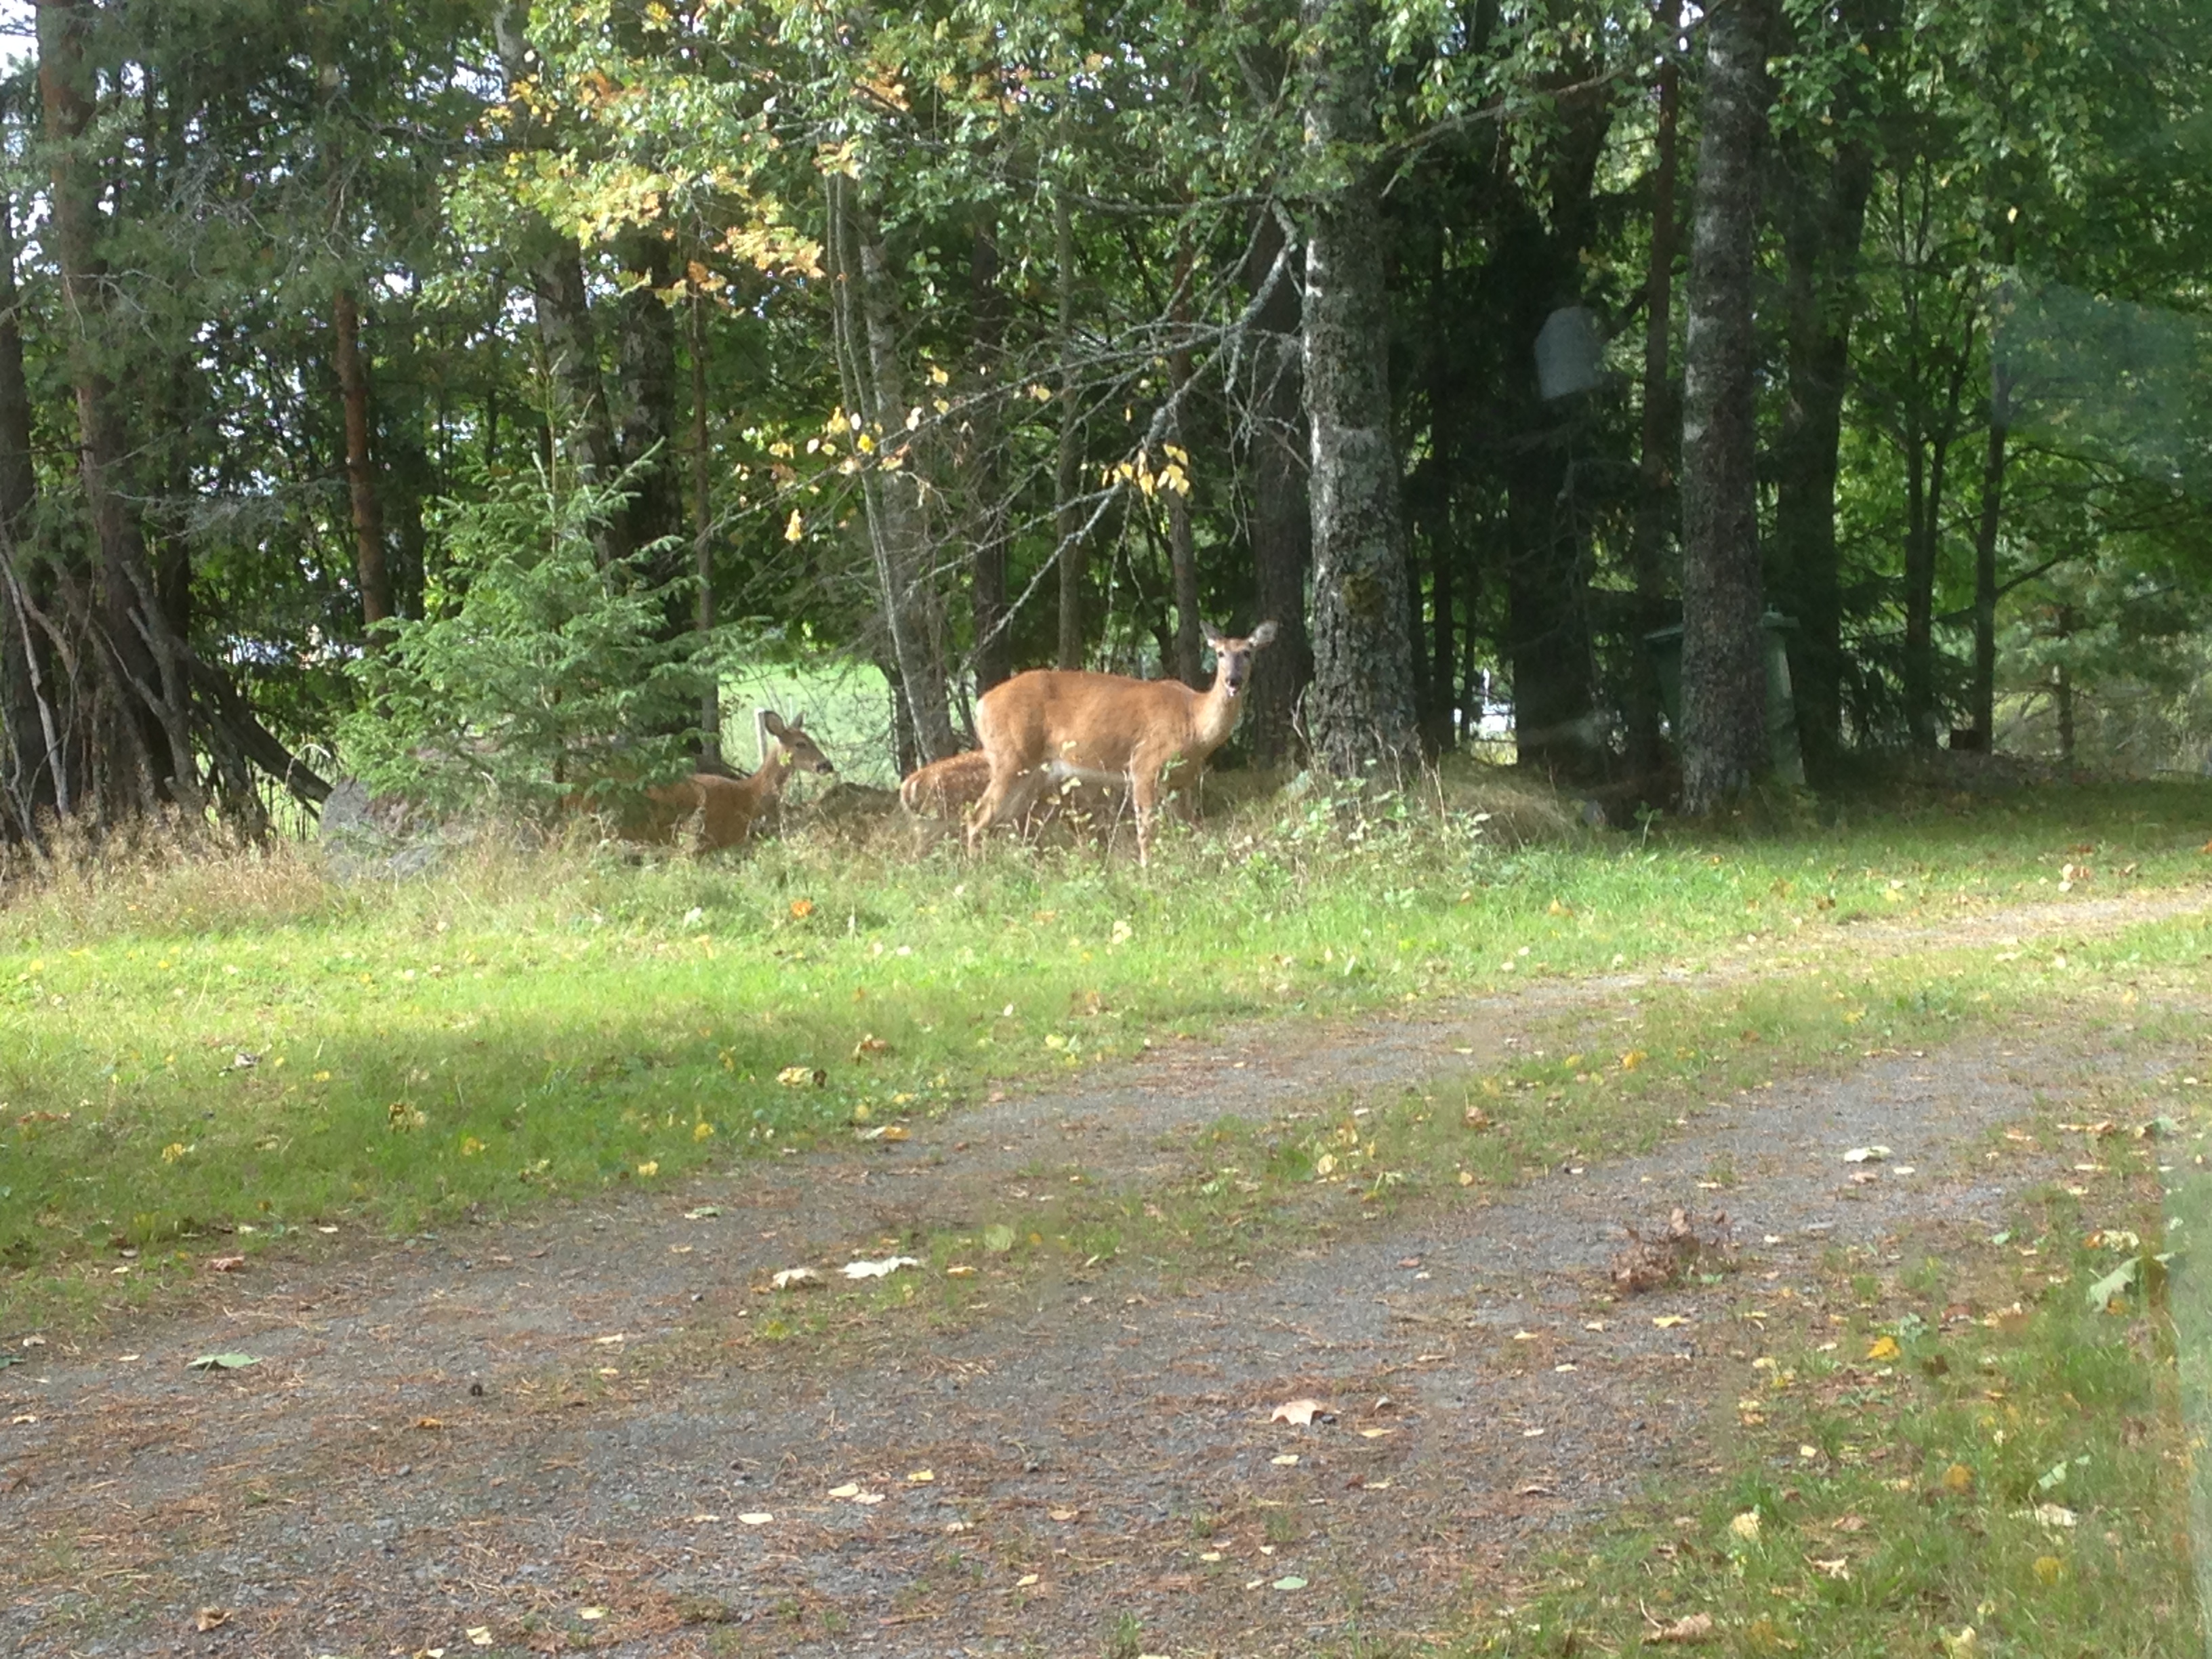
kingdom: Animalia
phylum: Chordata
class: Mammalia
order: Artiodactyla
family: Cervidae
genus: Odocoileus
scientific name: Odocoileus virginianus
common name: White-tailed deer
